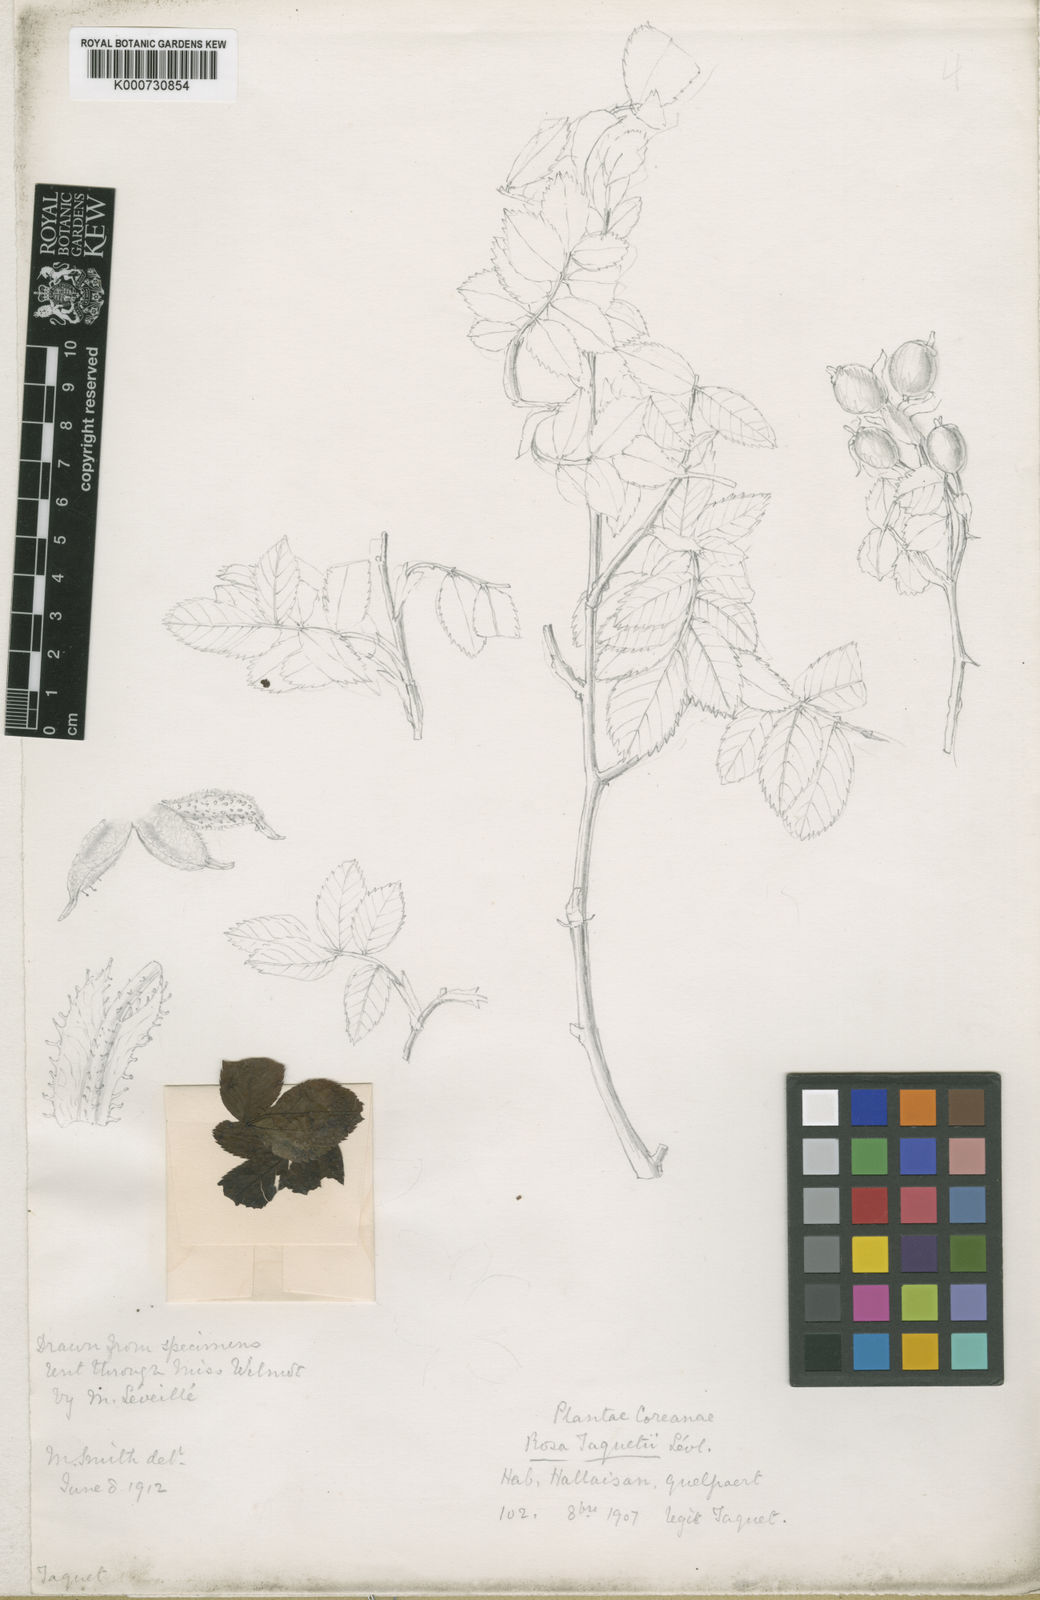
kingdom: Plantae
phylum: Tracheophyta
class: Magnoliopsida
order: Rosales
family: Rosaceae
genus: Rosa
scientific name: Rosa
